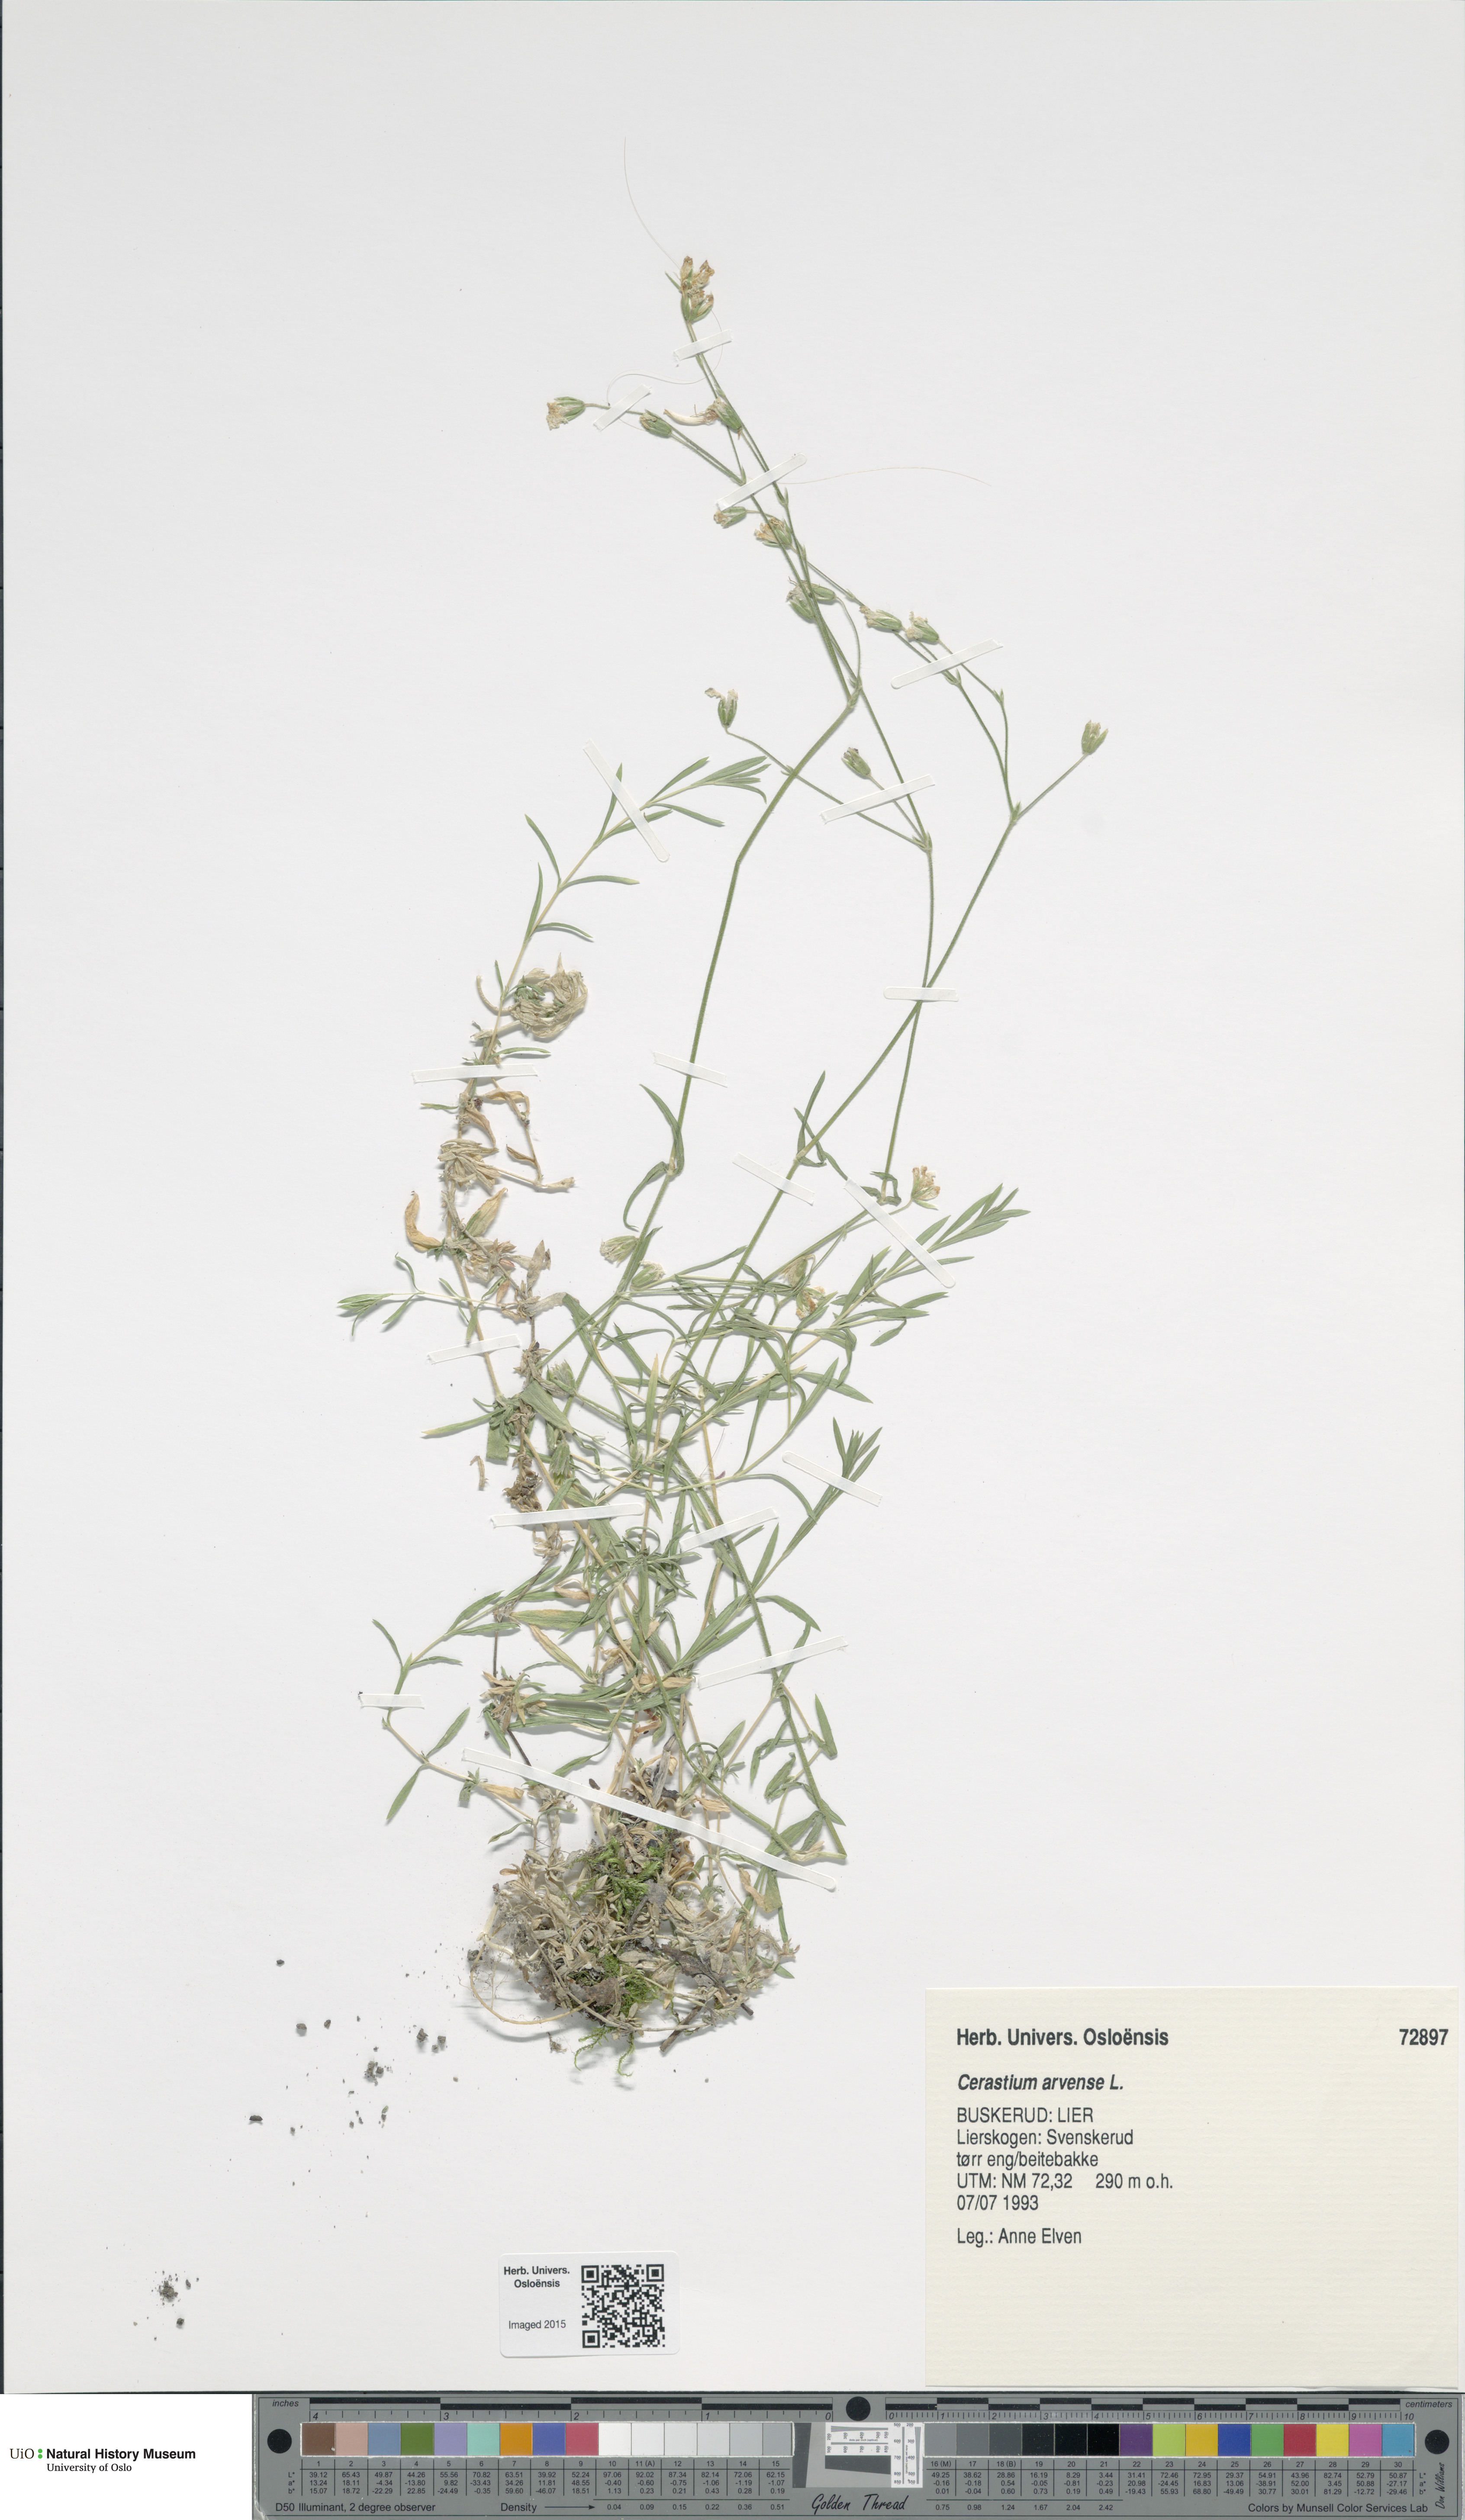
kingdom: Plantae
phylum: Tracheophyta
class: Magnoliopsida
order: Caryophyllales
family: Caryophyllaceae
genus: Cerastium
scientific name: Cerastium arvense
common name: Field mouse-ear
